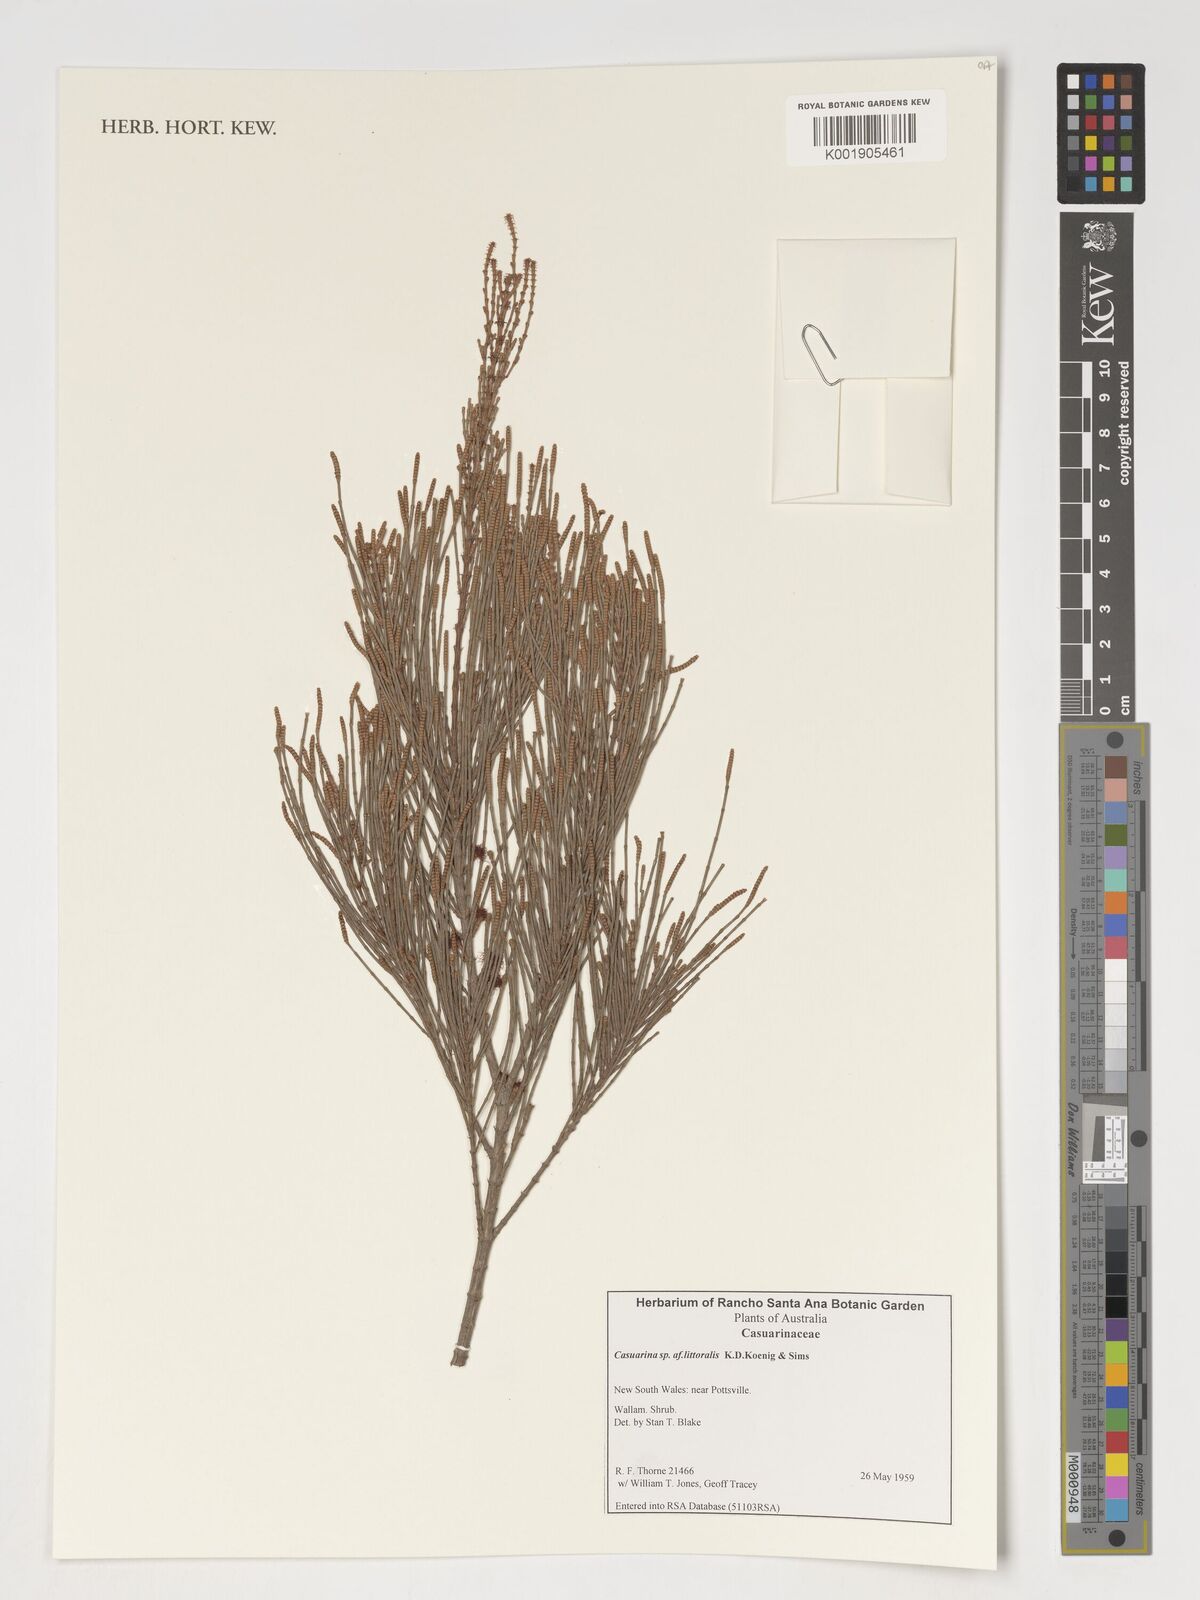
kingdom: Plantae
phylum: Tracheophyta
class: Magnoliopsida
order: Fagales
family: Casuarinaceae
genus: Allocasuarina
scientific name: Allocasuarina littoralis
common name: Black she-oak
